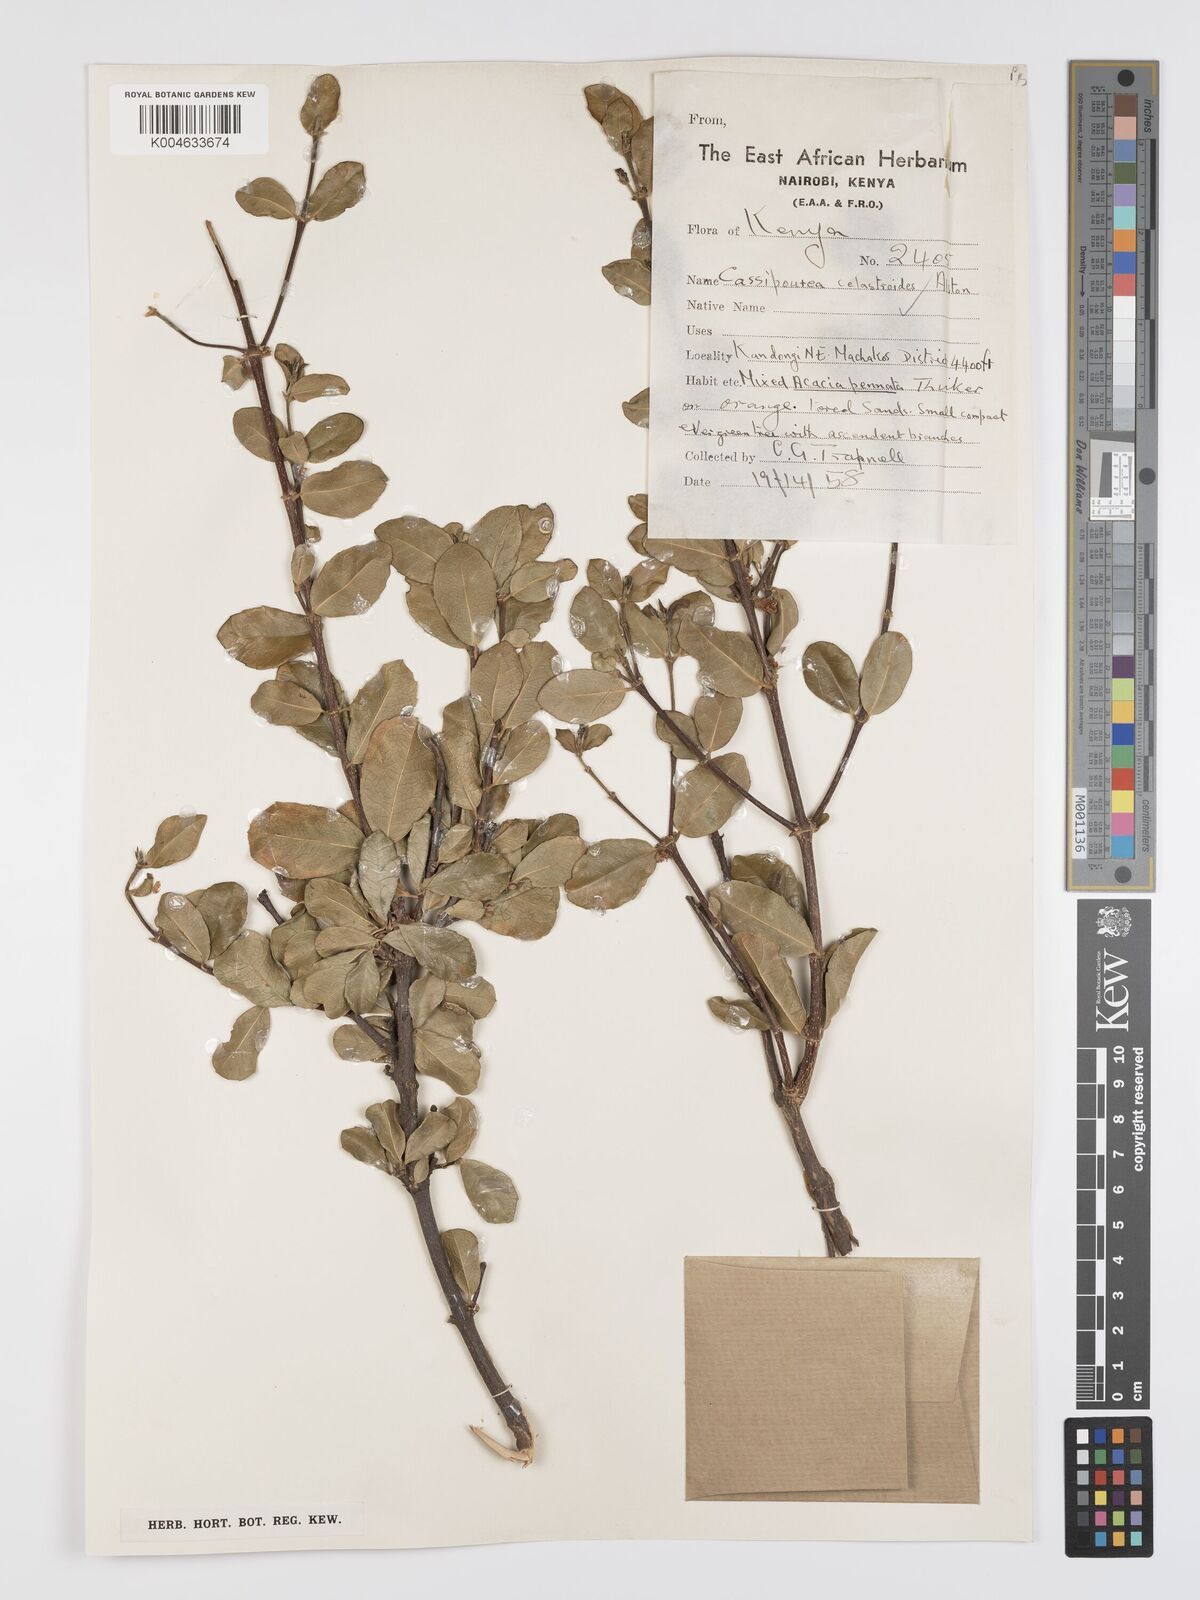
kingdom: Plantae
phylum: Tracheophyta
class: Magnoliopsida
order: Malpighiales
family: Rhizophoraceae
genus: Cassipourea
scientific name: Cassipourea celastroides
